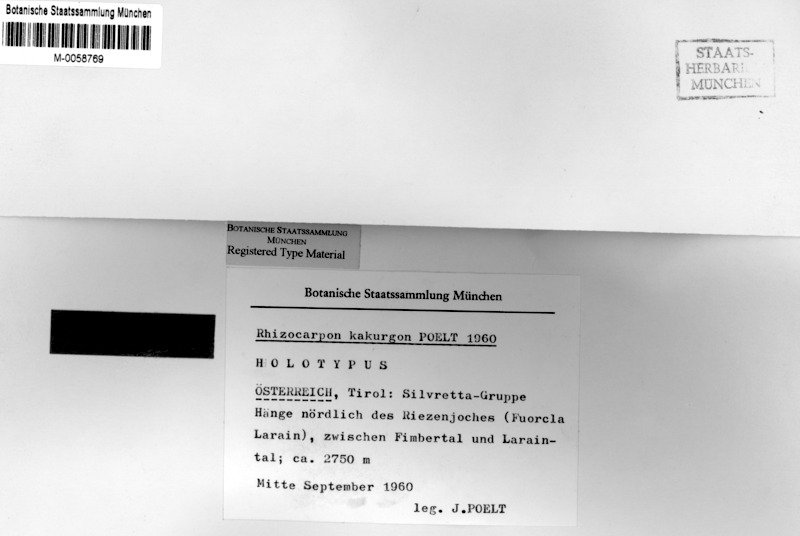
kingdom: Fungi
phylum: Ascomycota
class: Lecanoromycetes
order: Rhizocarpales
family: Rhizocarpaceae
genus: Rhizocarpon
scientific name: Rhizocarpon kakurgon
